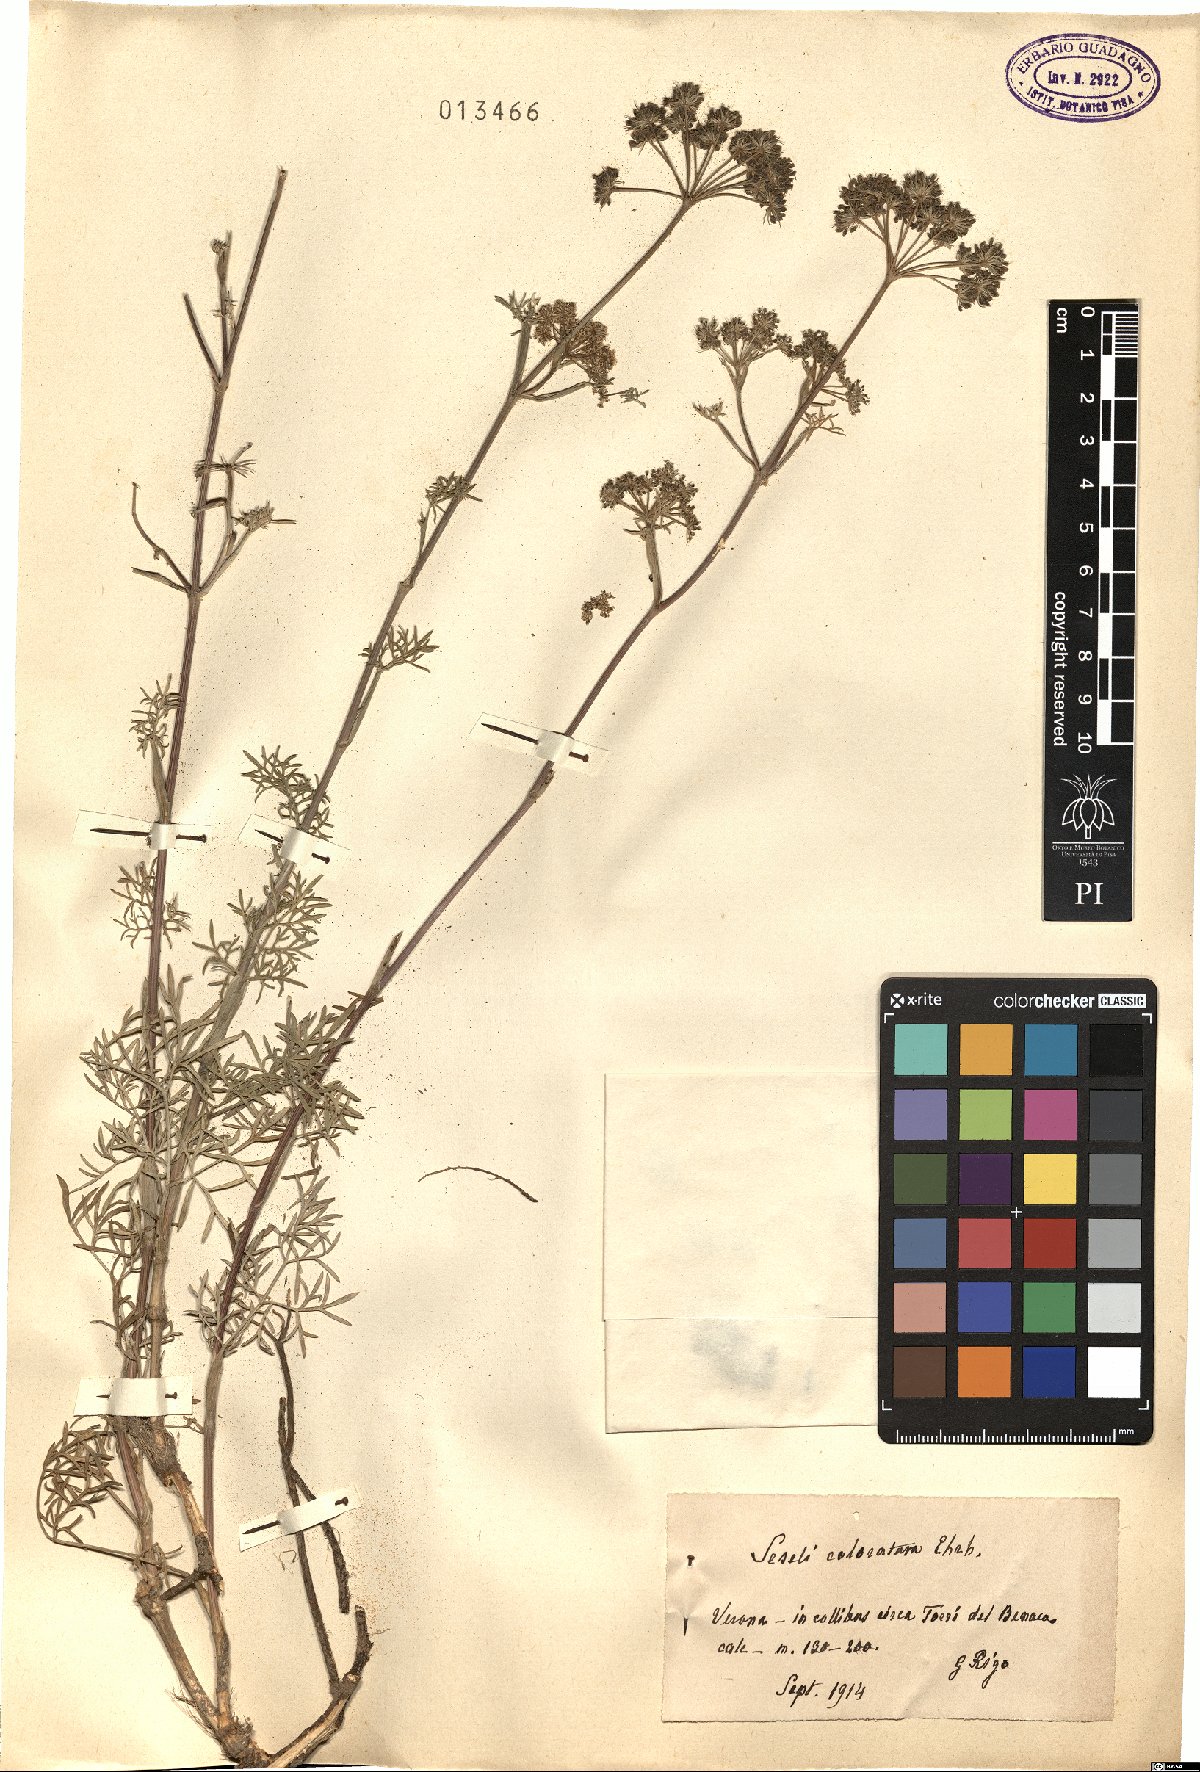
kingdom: Plantae
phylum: Tracheophyta
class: Magnoliopsida
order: Apiales
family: Apiaceae
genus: Seseli
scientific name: Seseli annuum
